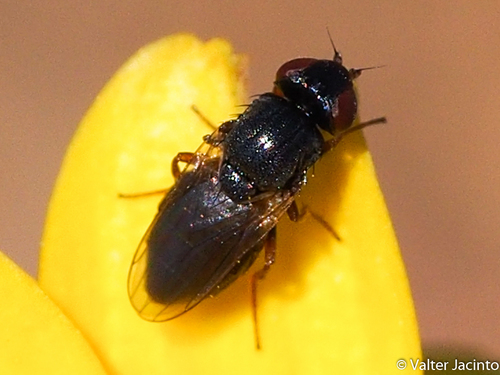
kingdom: Animalia
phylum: Arthropoda
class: Insecta
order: Diptera
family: Chloropidae
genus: Siphonella
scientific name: Siphonella oscinina
